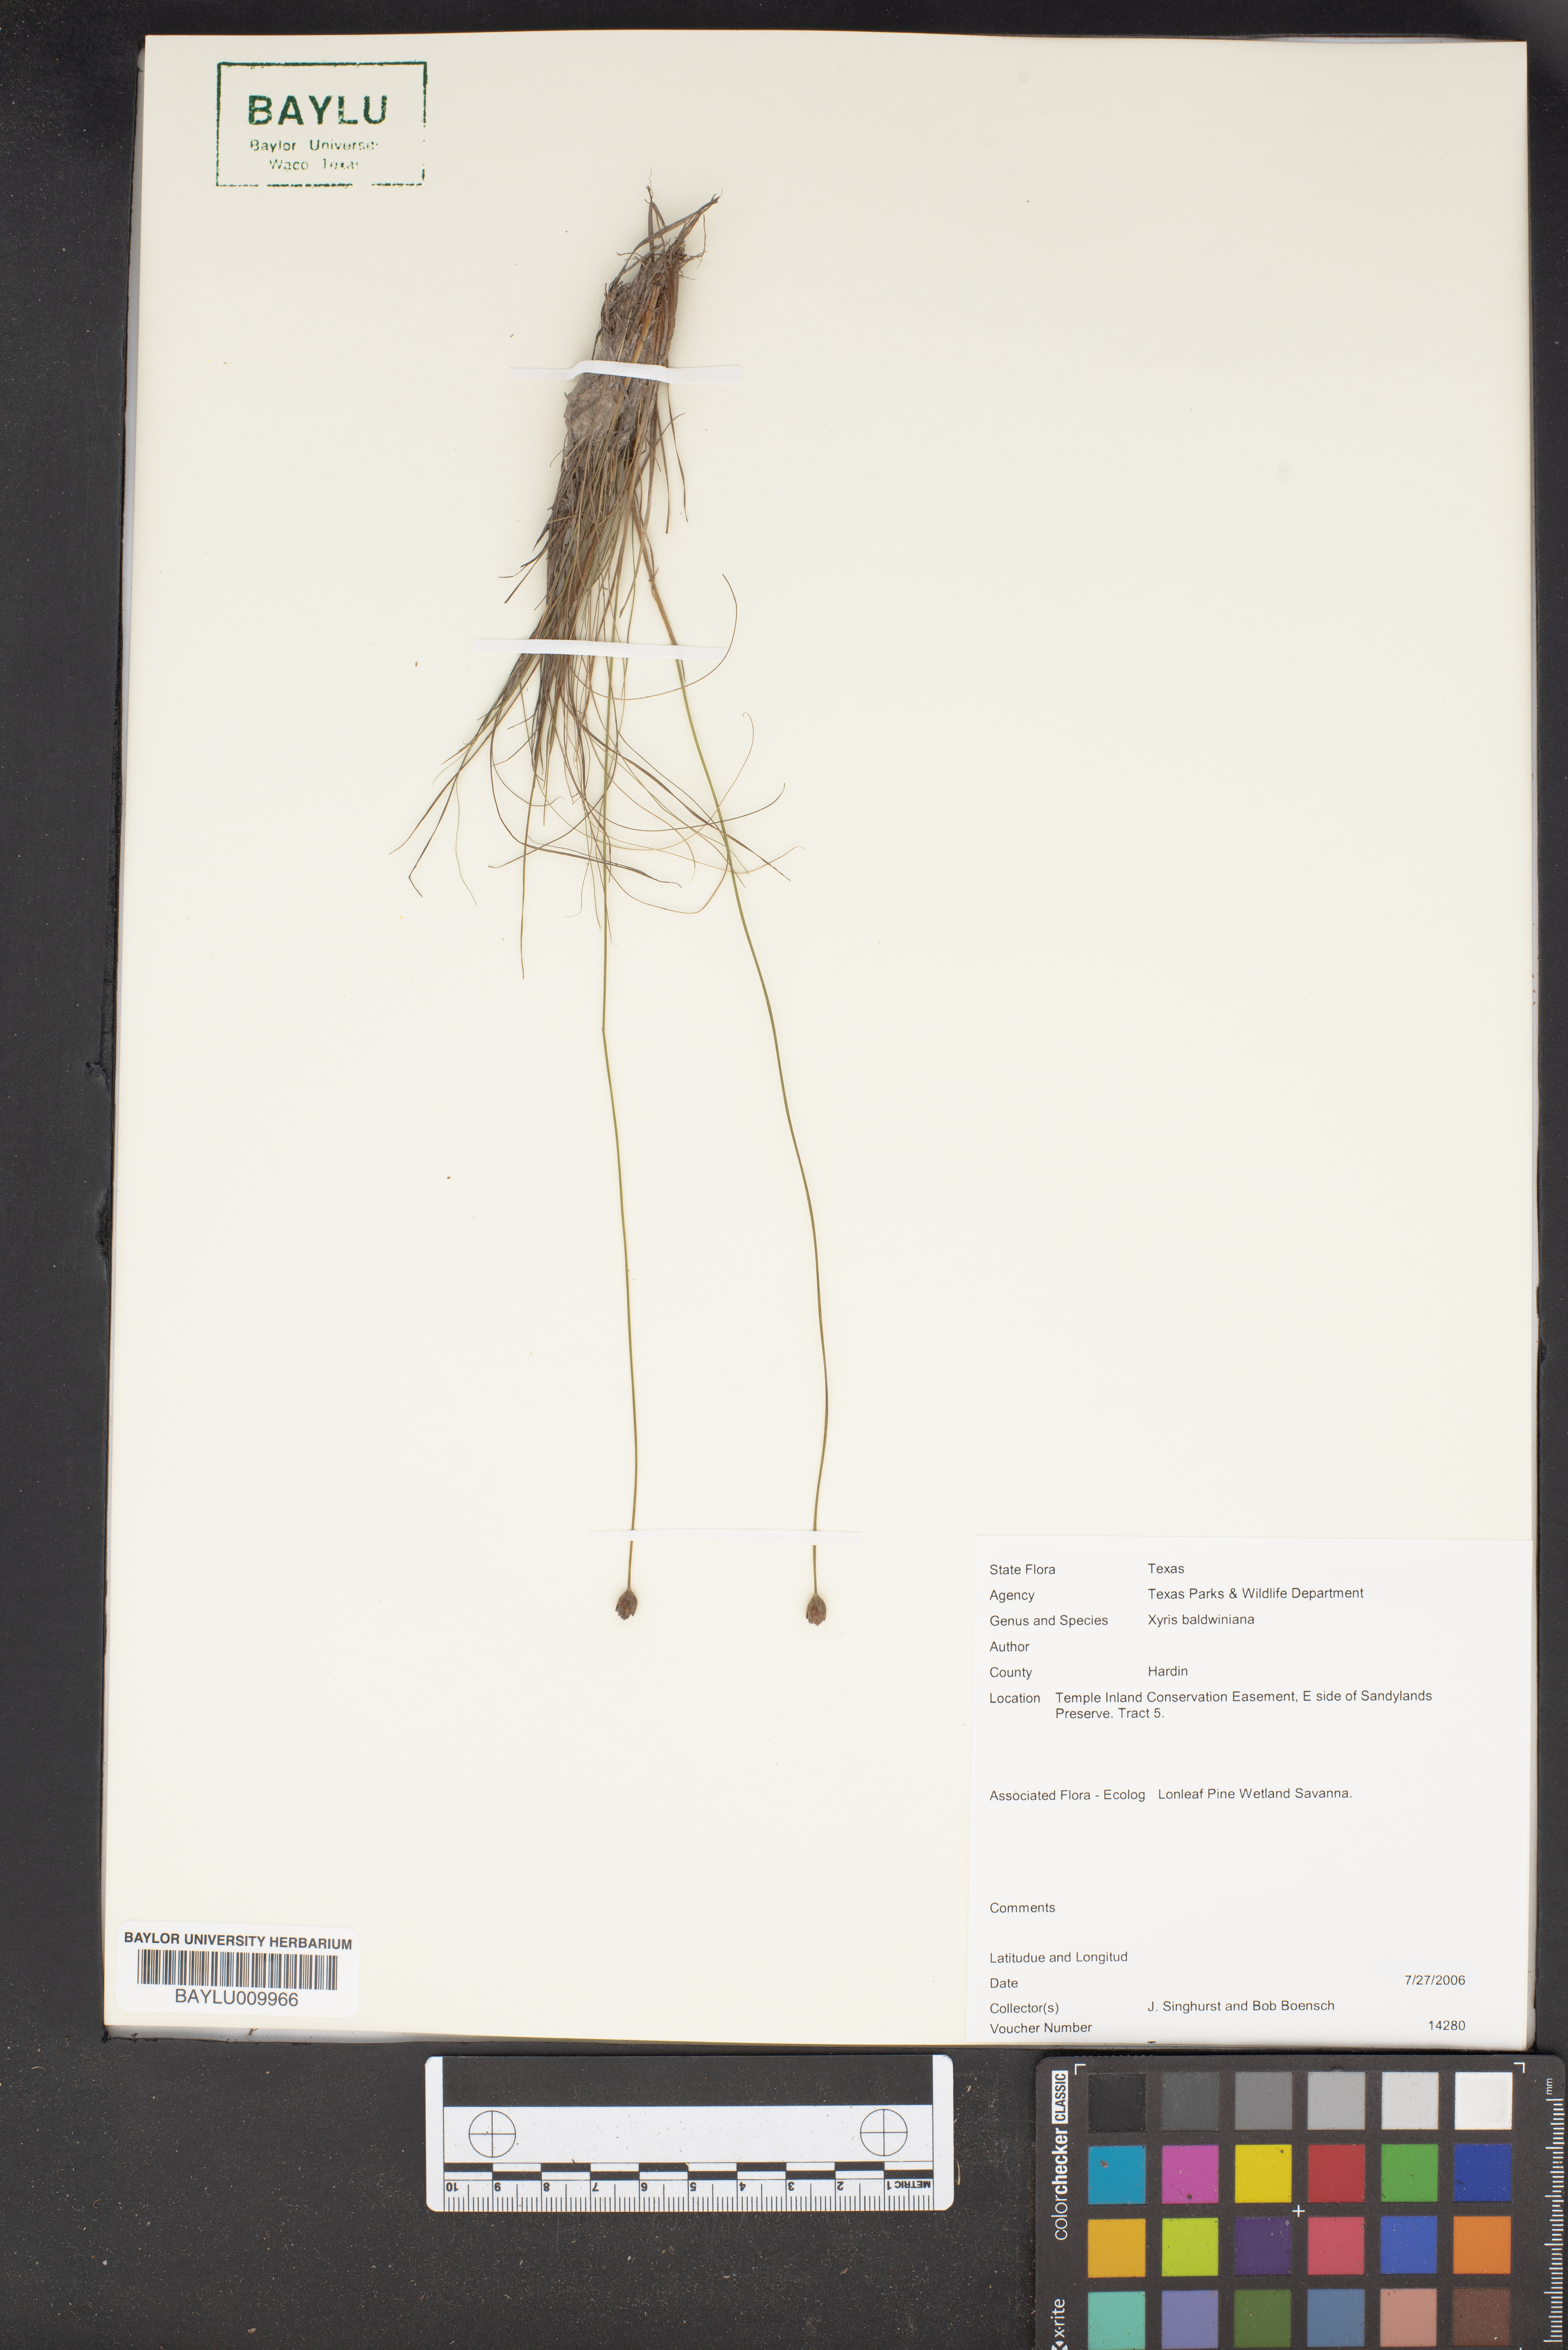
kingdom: Plantae
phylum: Tracheophyta
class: Liliopsida
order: Poales
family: Xyridaceae
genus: Xyris
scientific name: Xyris baldwiniana
